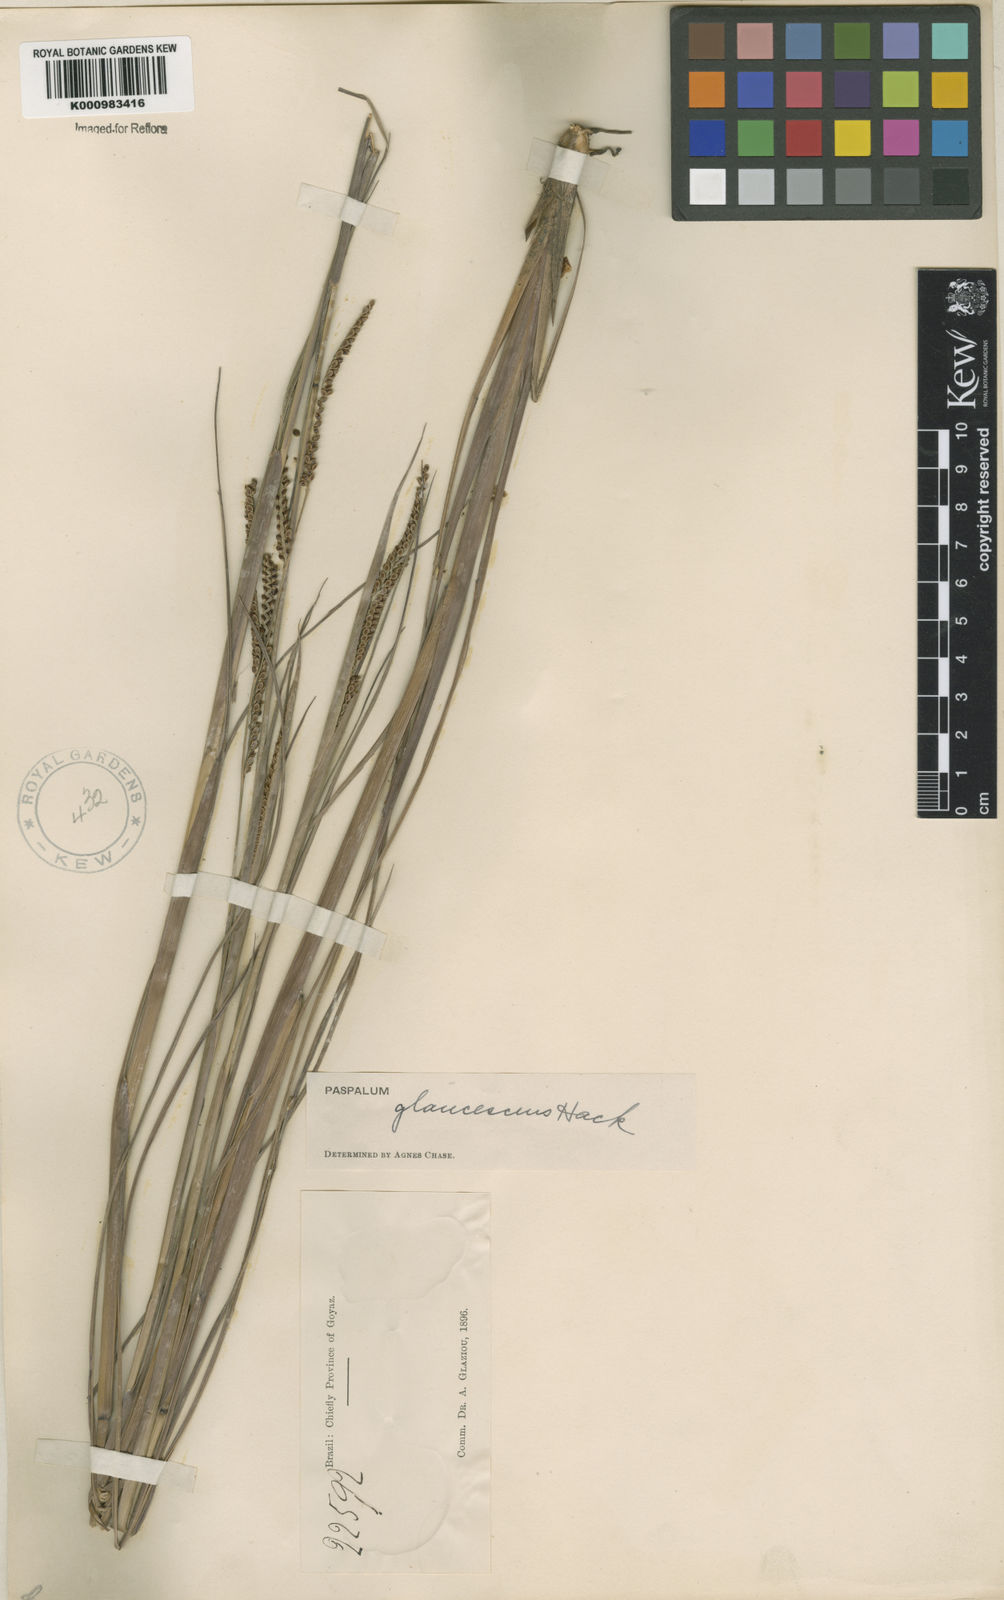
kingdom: Plantae
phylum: Tracheophyta
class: Liliopsida
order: Poales
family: Poaceae
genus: Paspalum
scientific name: Paspalum plicatulum
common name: Top paspalum
